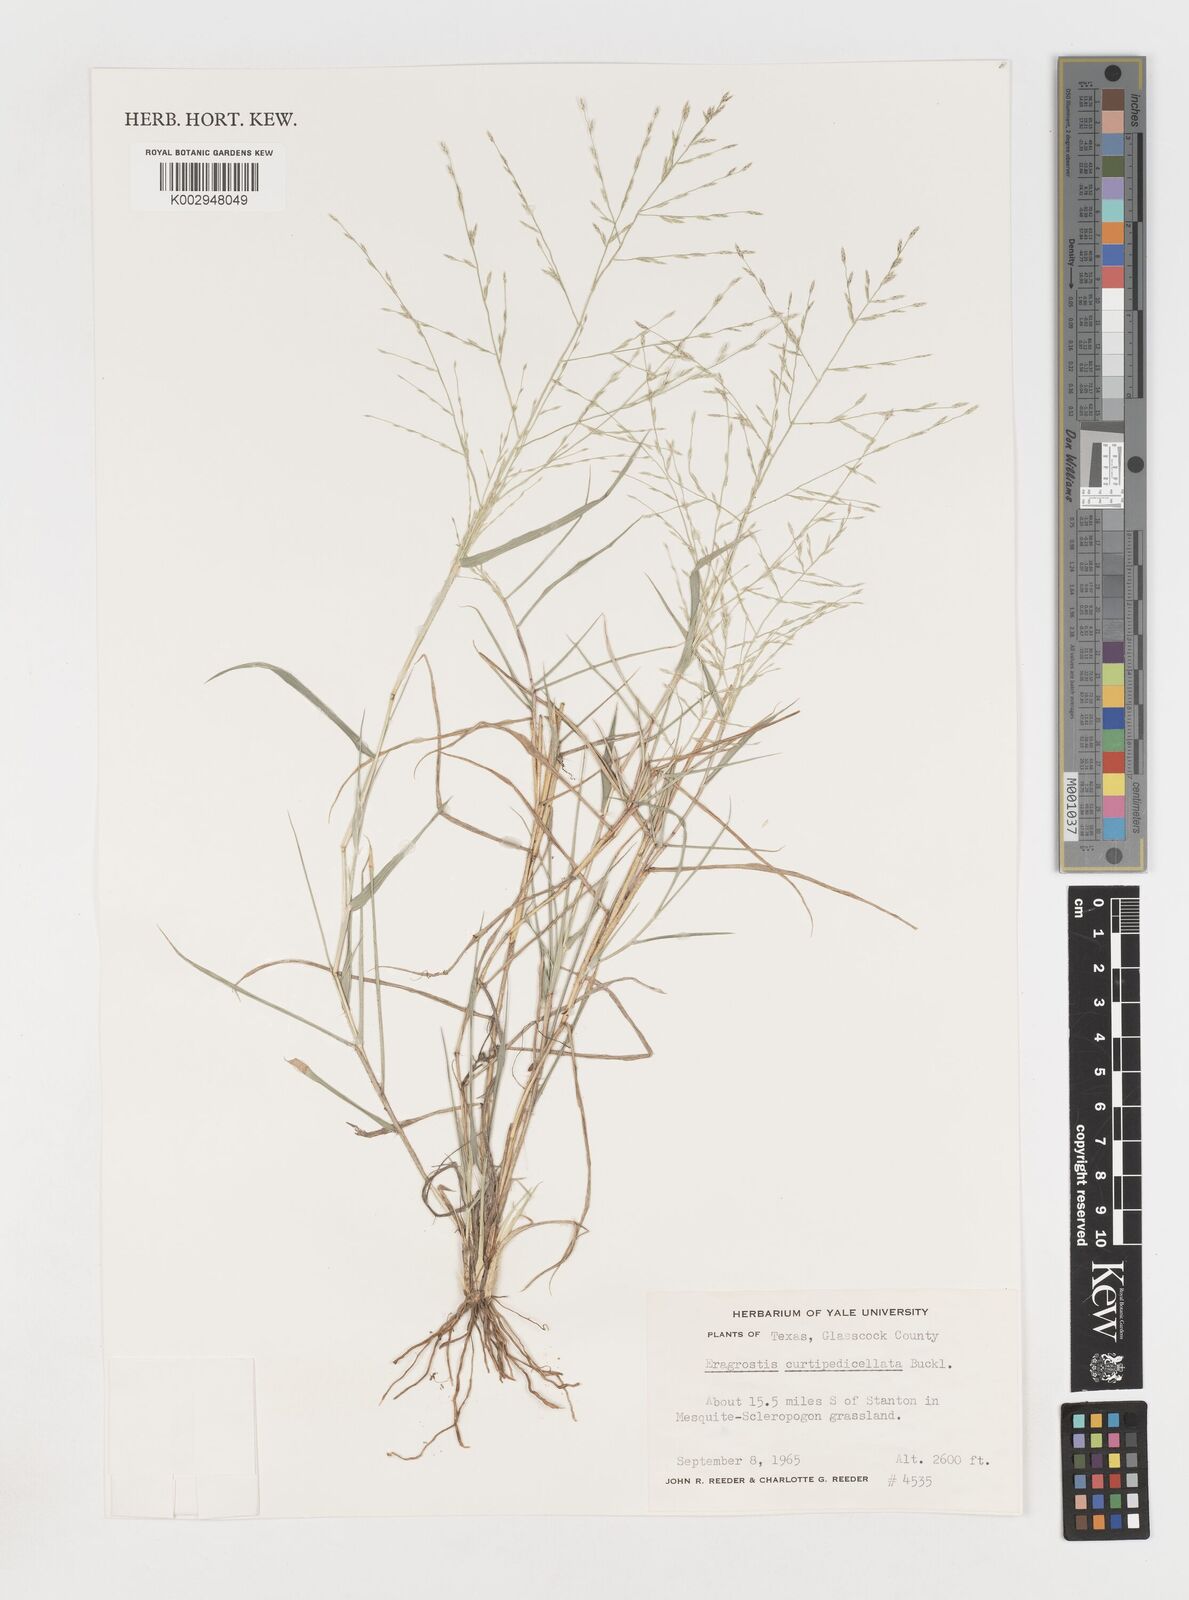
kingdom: Plantae
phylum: Tracheophyta
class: Liliopsida
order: Poales
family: Poaceae
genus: Eragrostis
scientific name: Eragrostis curtipedicellata
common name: Gummy love grass
